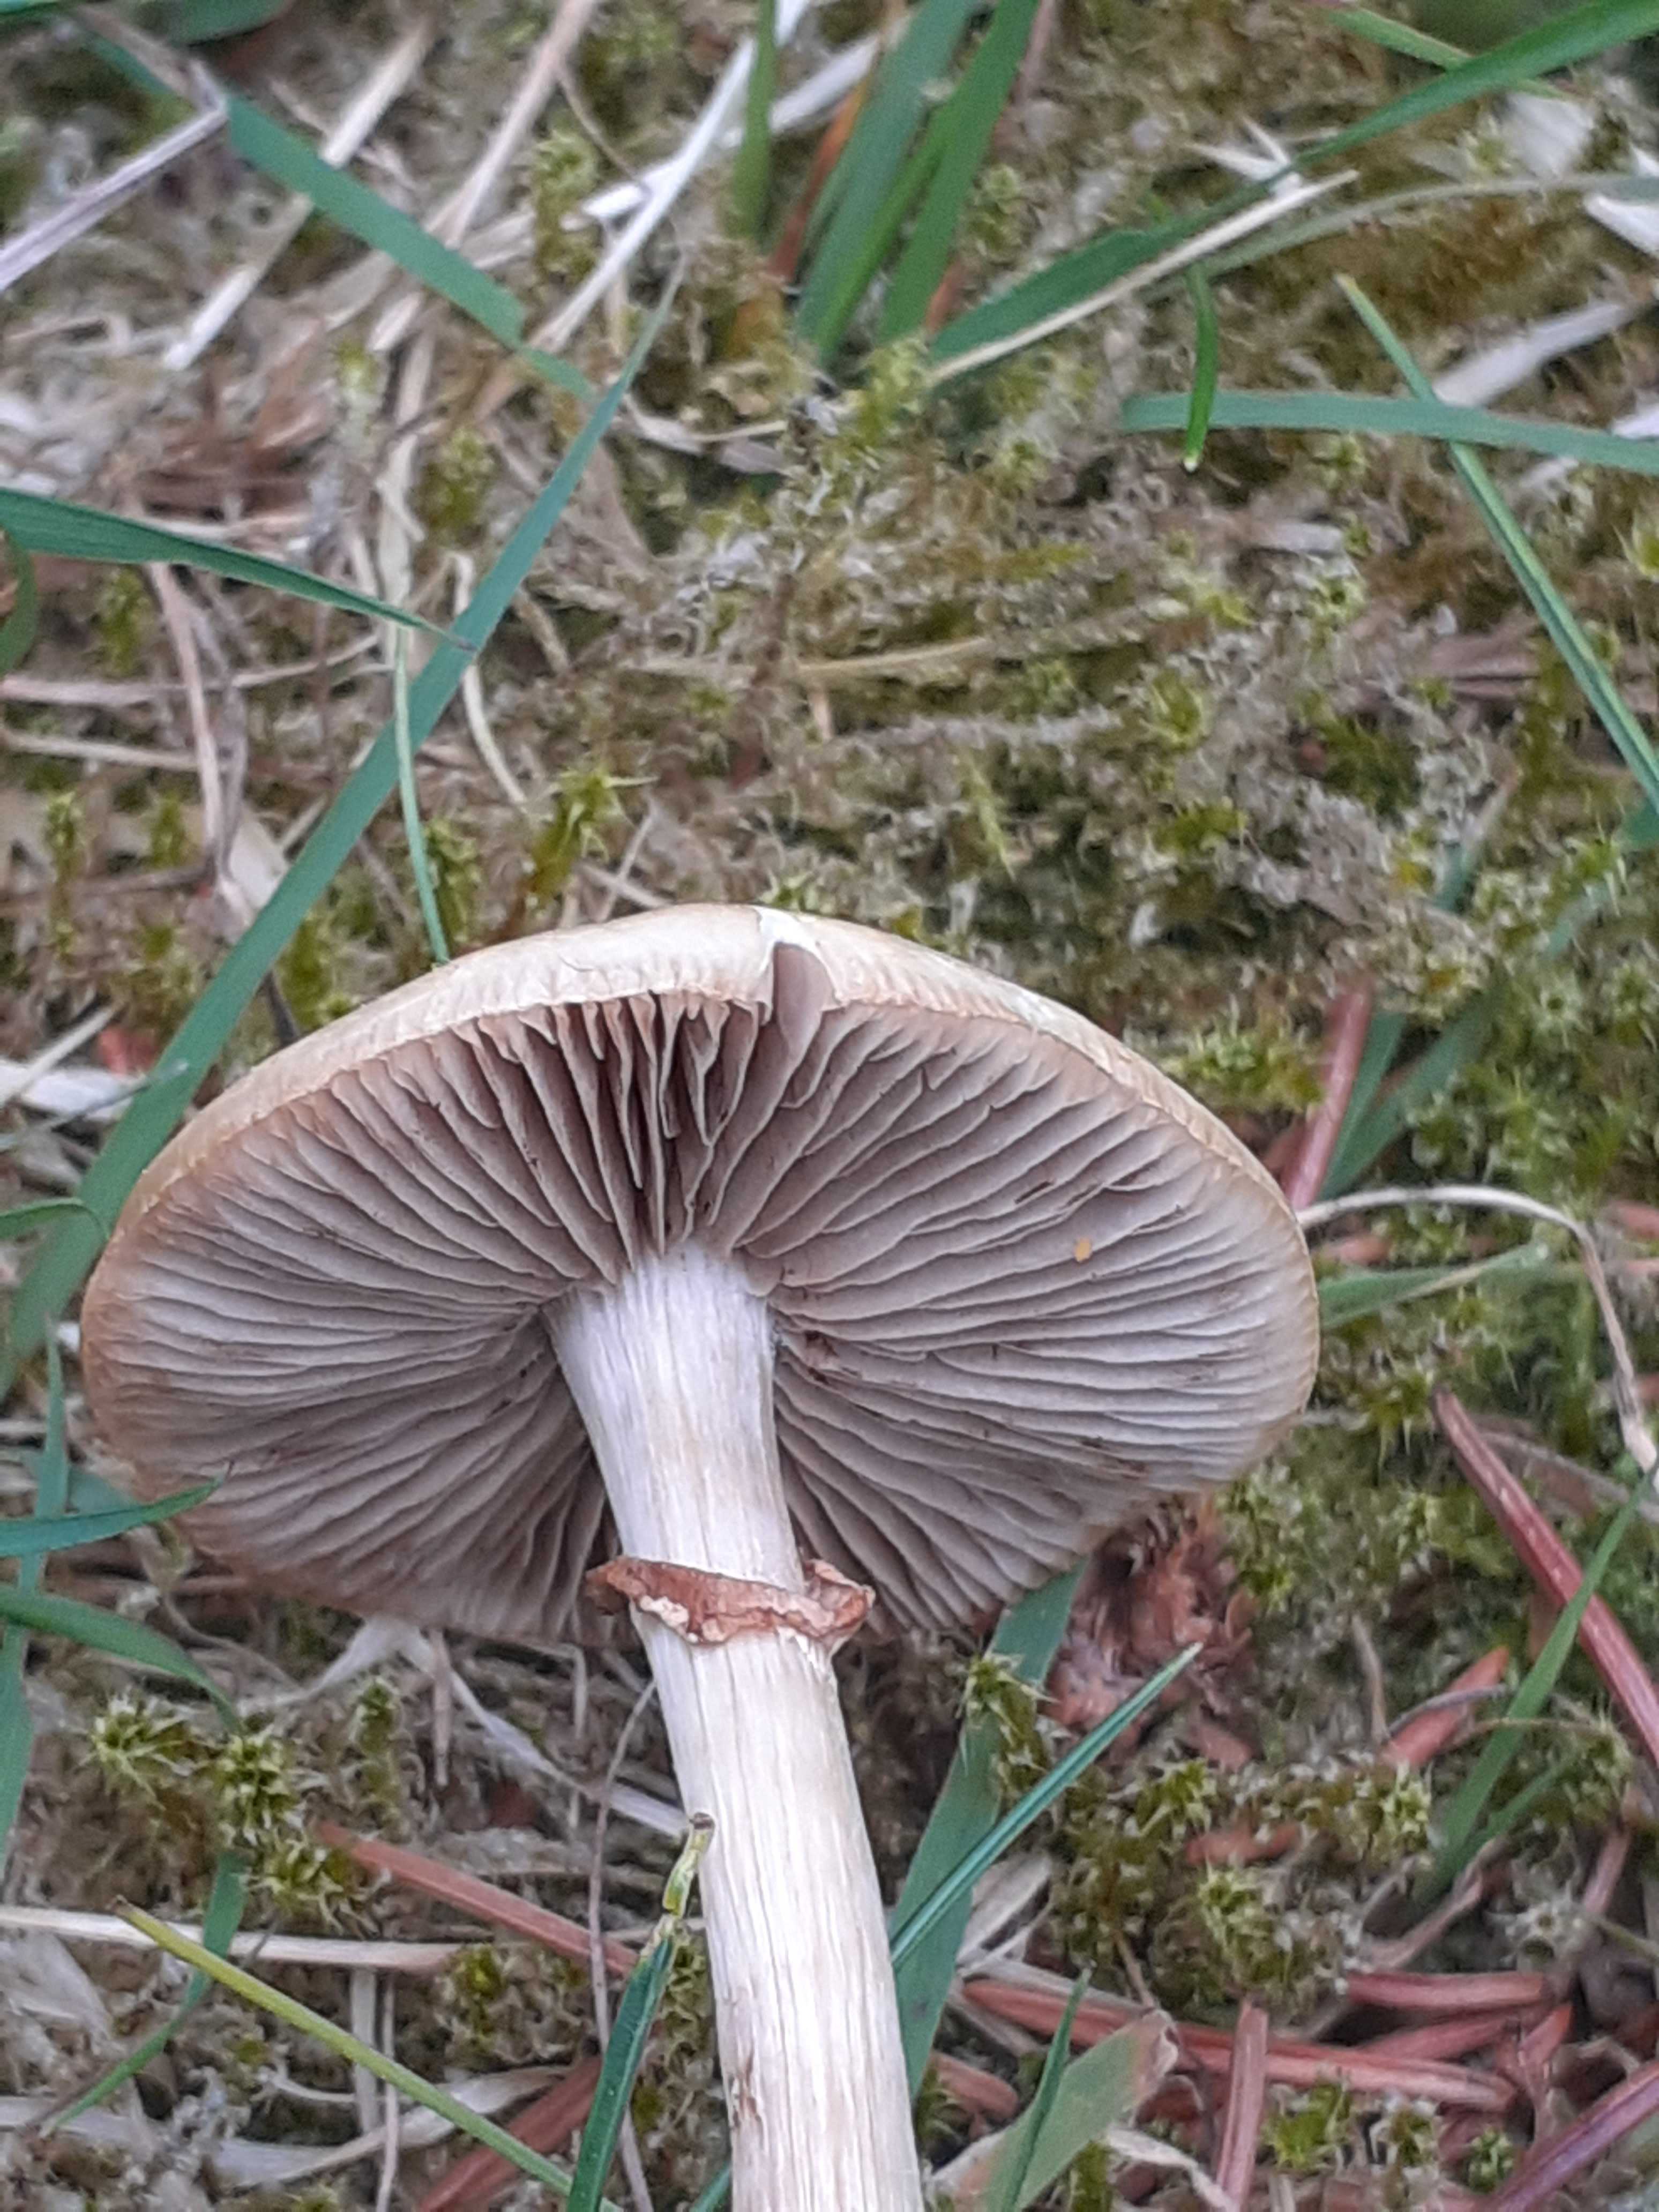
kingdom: Fungi
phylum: Basidiomycota
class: Agaricomycetes
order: Agaricales
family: Strophariaceae
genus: Agrocybe
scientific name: Agrocybe praecox
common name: tidlig agerhat
